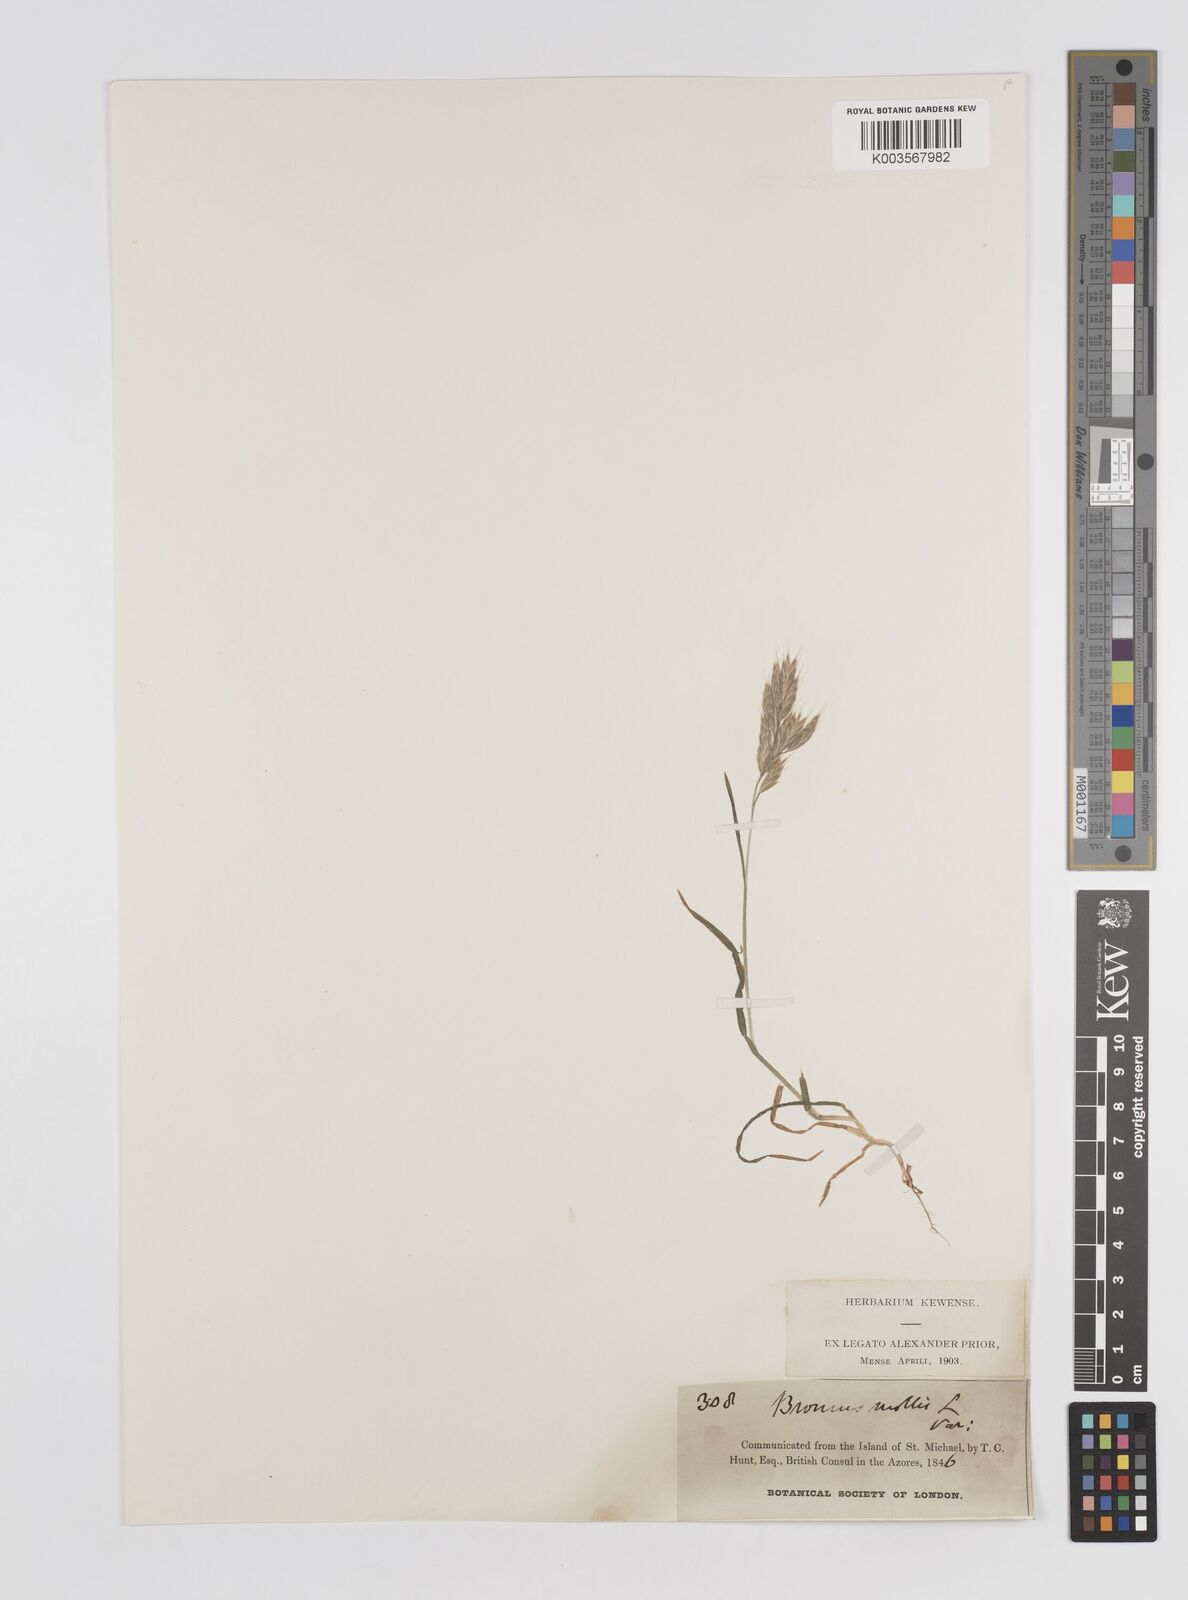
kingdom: Plantae
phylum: Tracheophyta
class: Liliopsida
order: Poales
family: Poaceae
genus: Bromus
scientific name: Bromus
